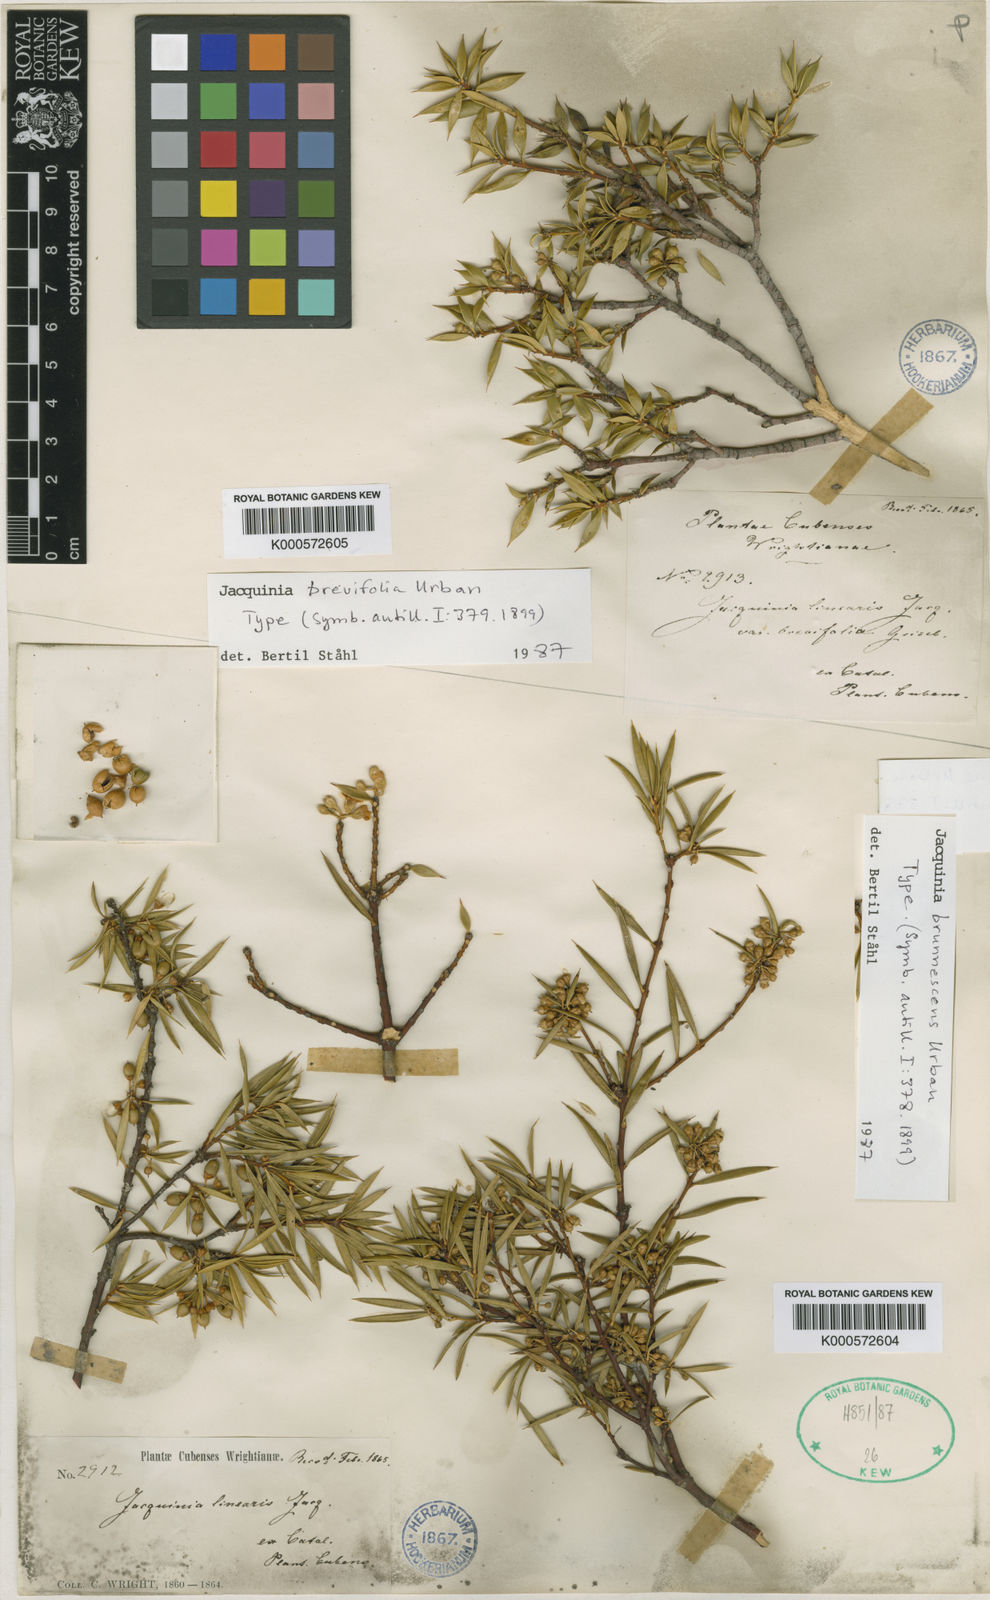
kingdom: Plantae
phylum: Tracheophyta
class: Magnoliopsida
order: Ericales
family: Primulaceae
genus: Bonellia
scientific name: Bonellia brunnescens
